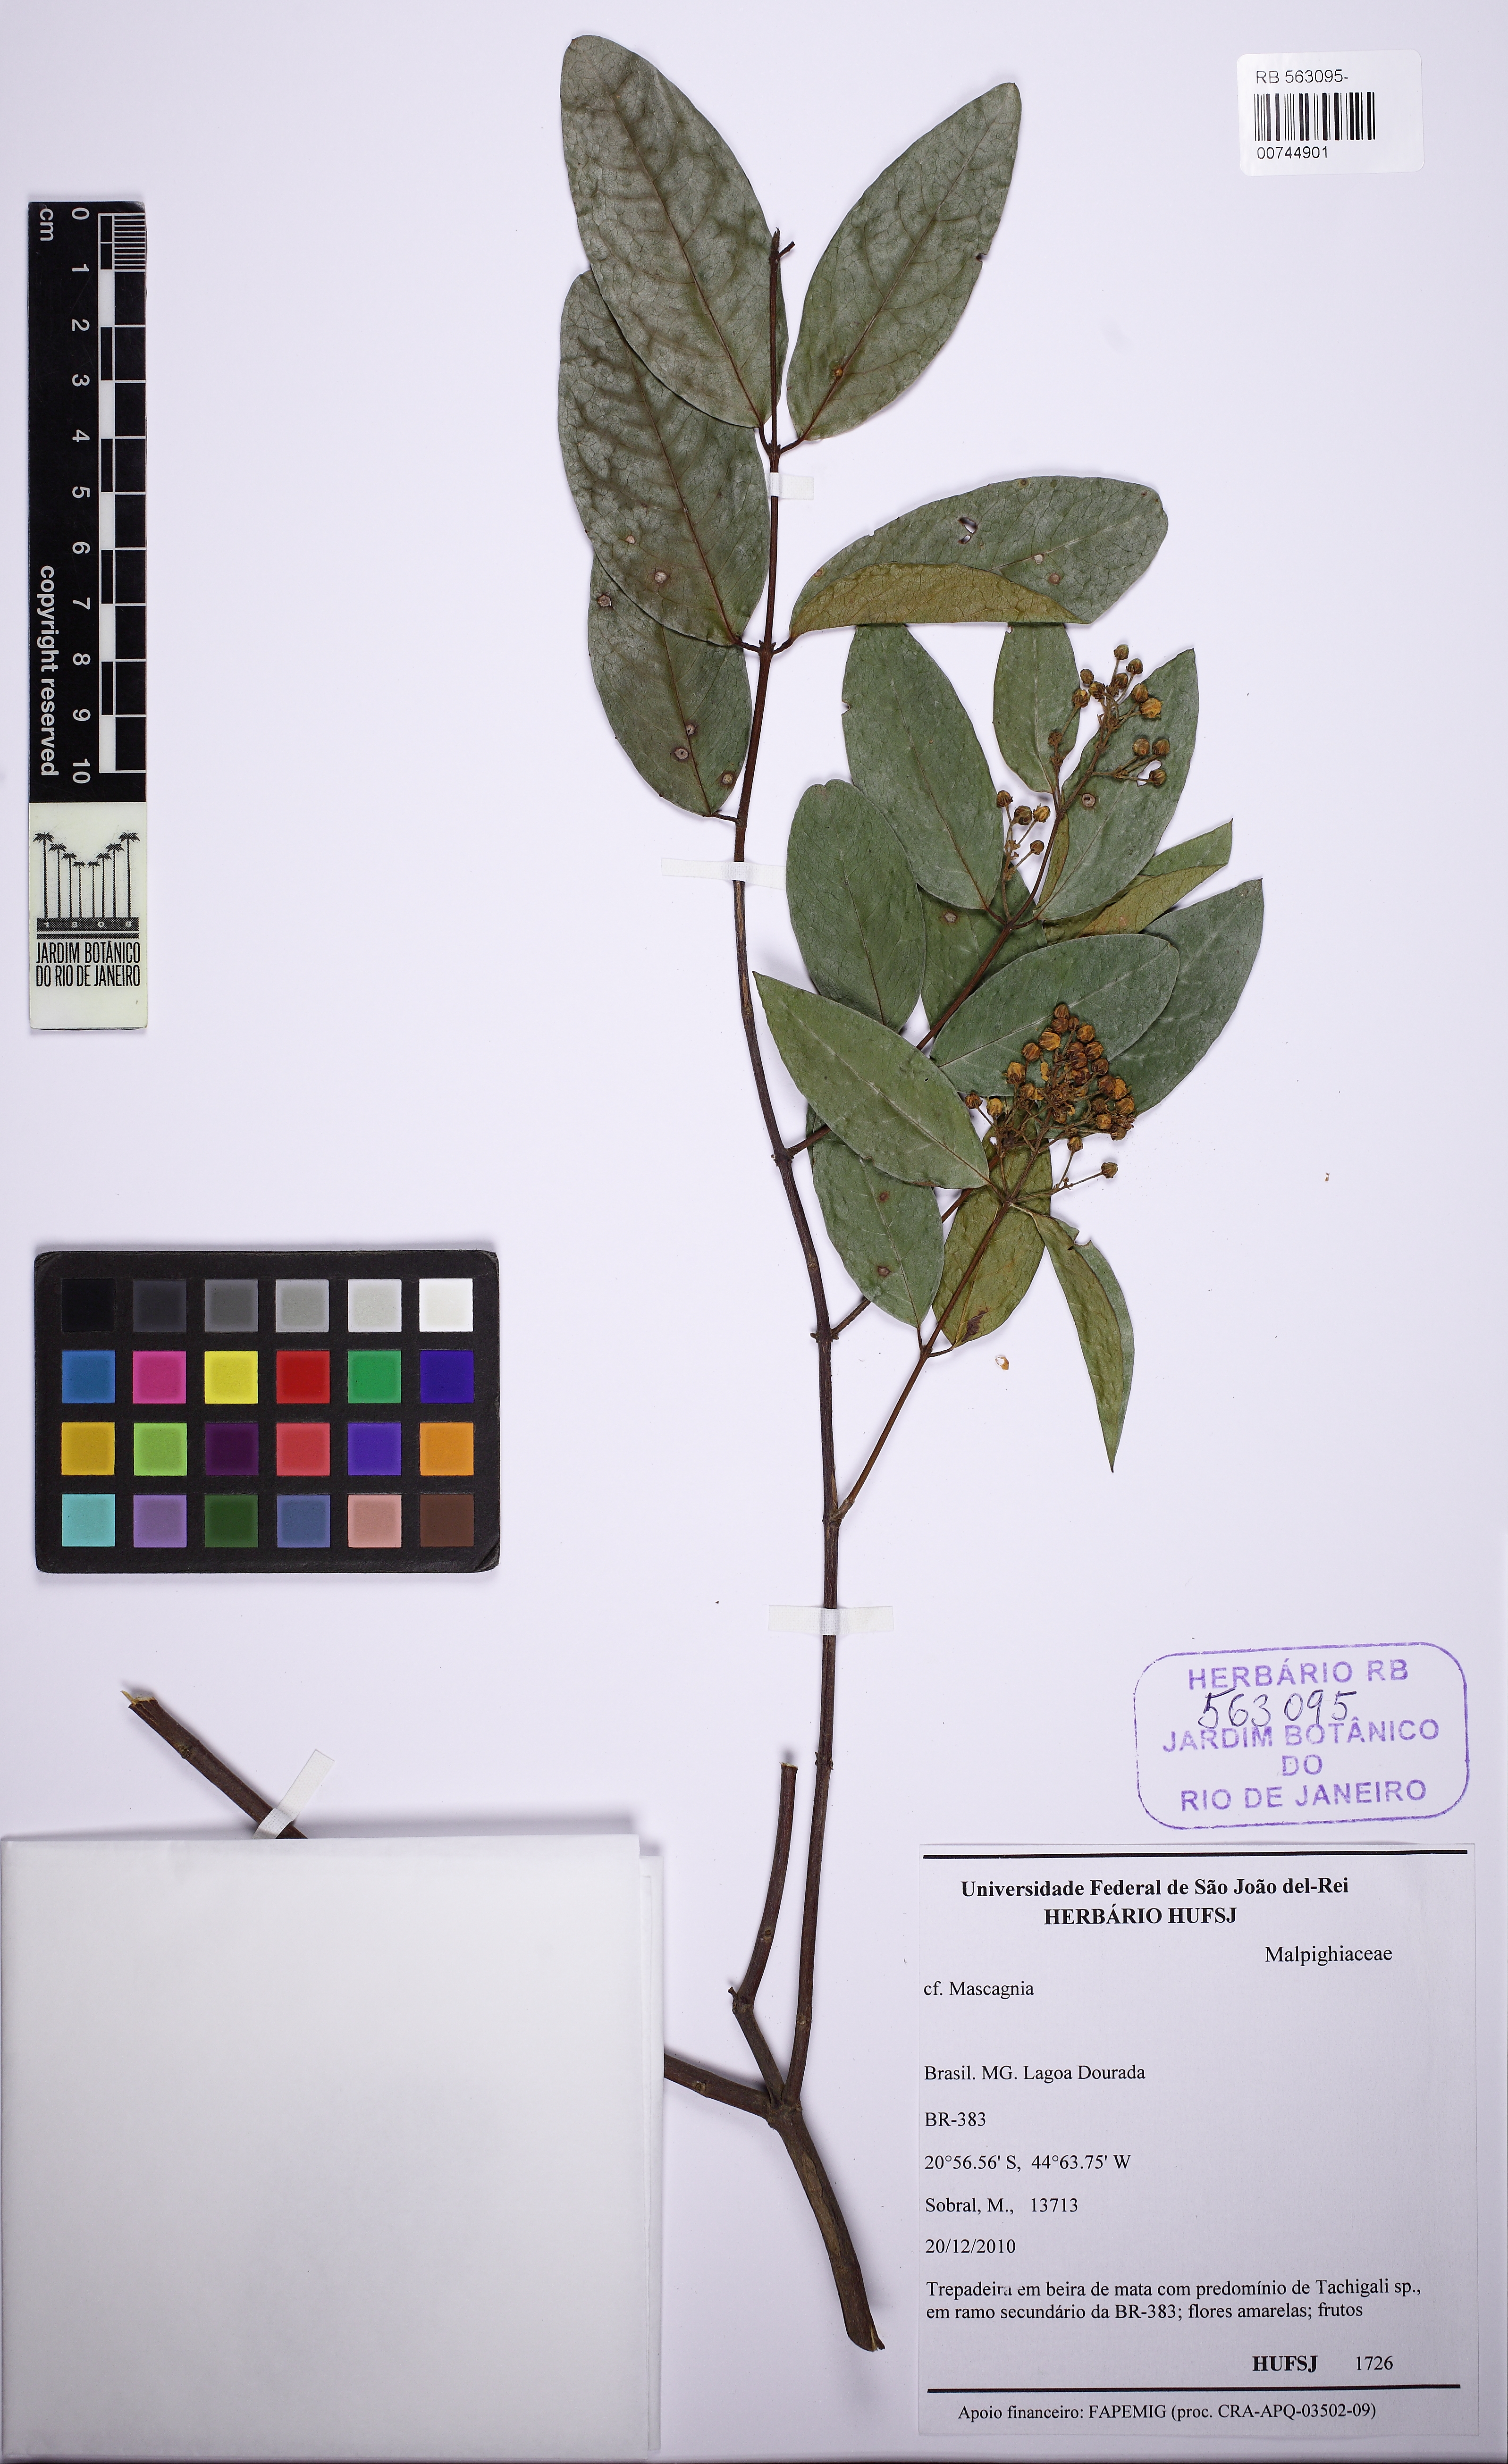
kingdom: Plantae
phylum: Tracheophyta
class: Magnoliopsida
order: Malpighiales
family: Malpighiaceae
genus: Niedenzuella
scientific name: Niedenzuella
